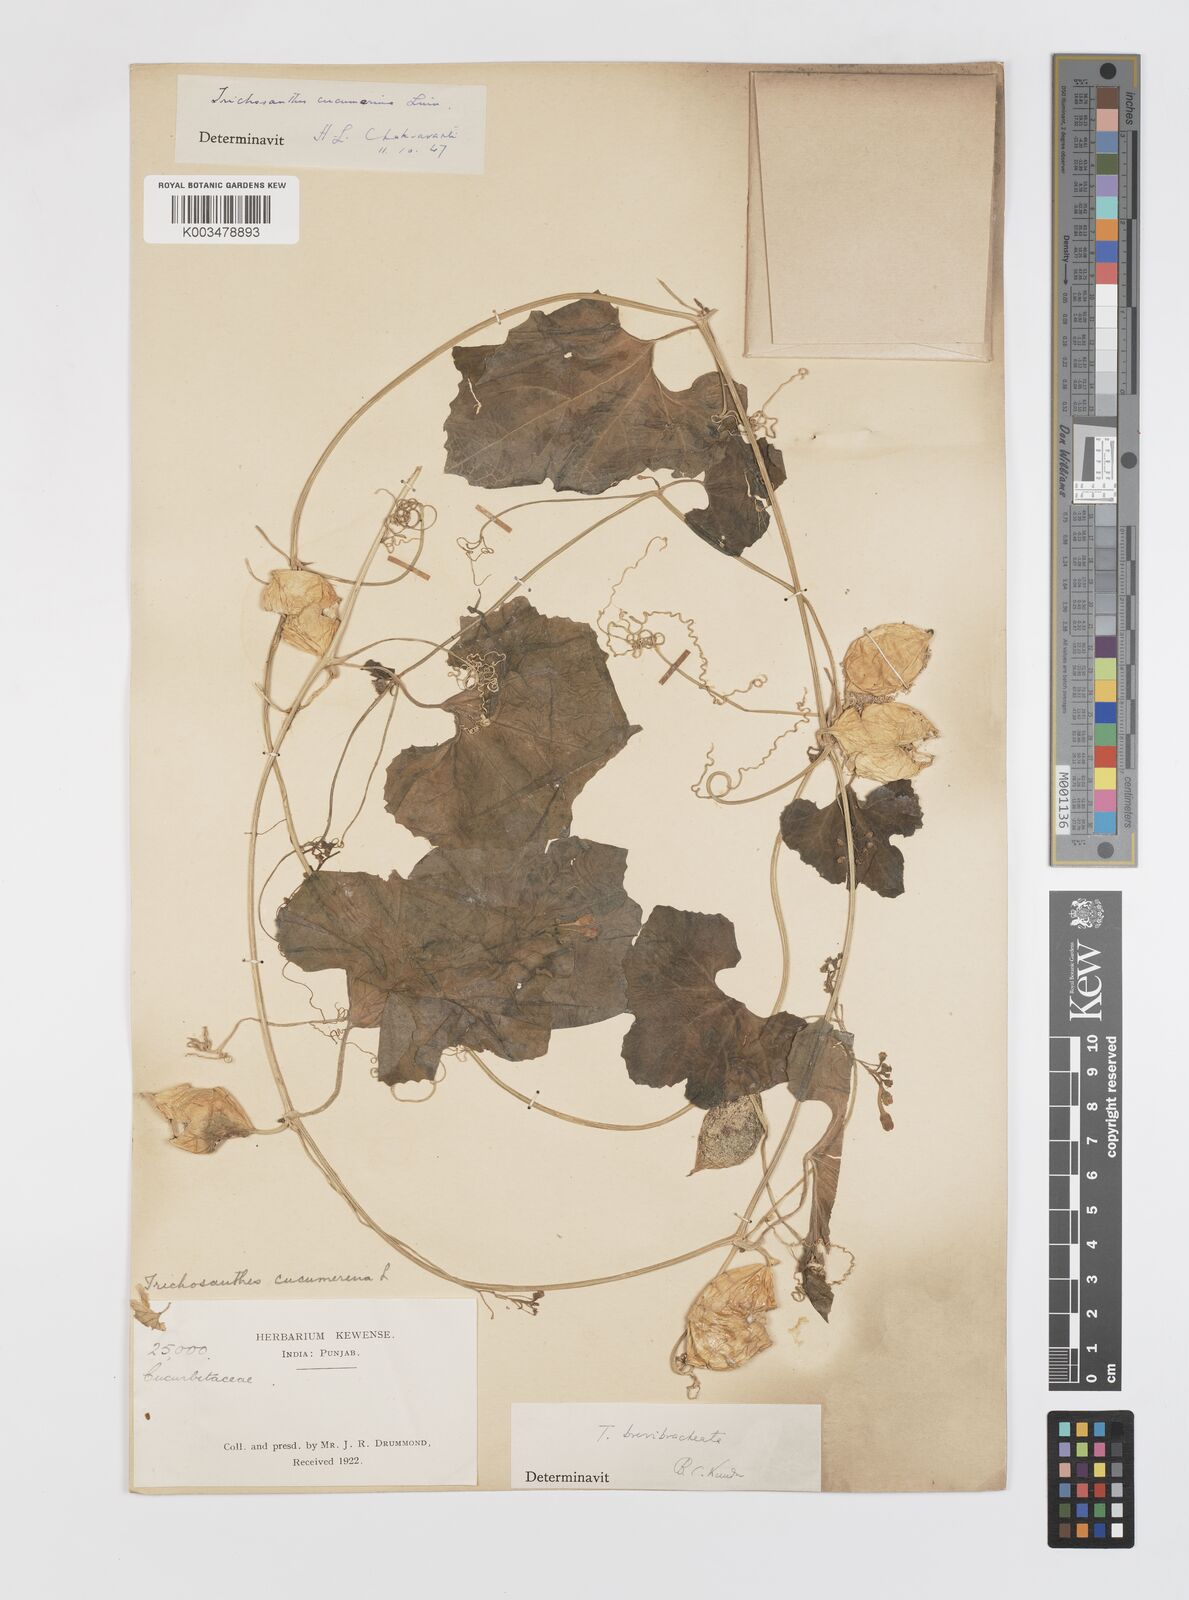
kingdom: Plantae
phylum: Tracheophyta
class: Magnoliopsida
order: Cucurbitales
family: Cucurbitaceae
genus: Trichosanthes
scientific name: Trichosanthes cucumerina
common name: Snakegourd
